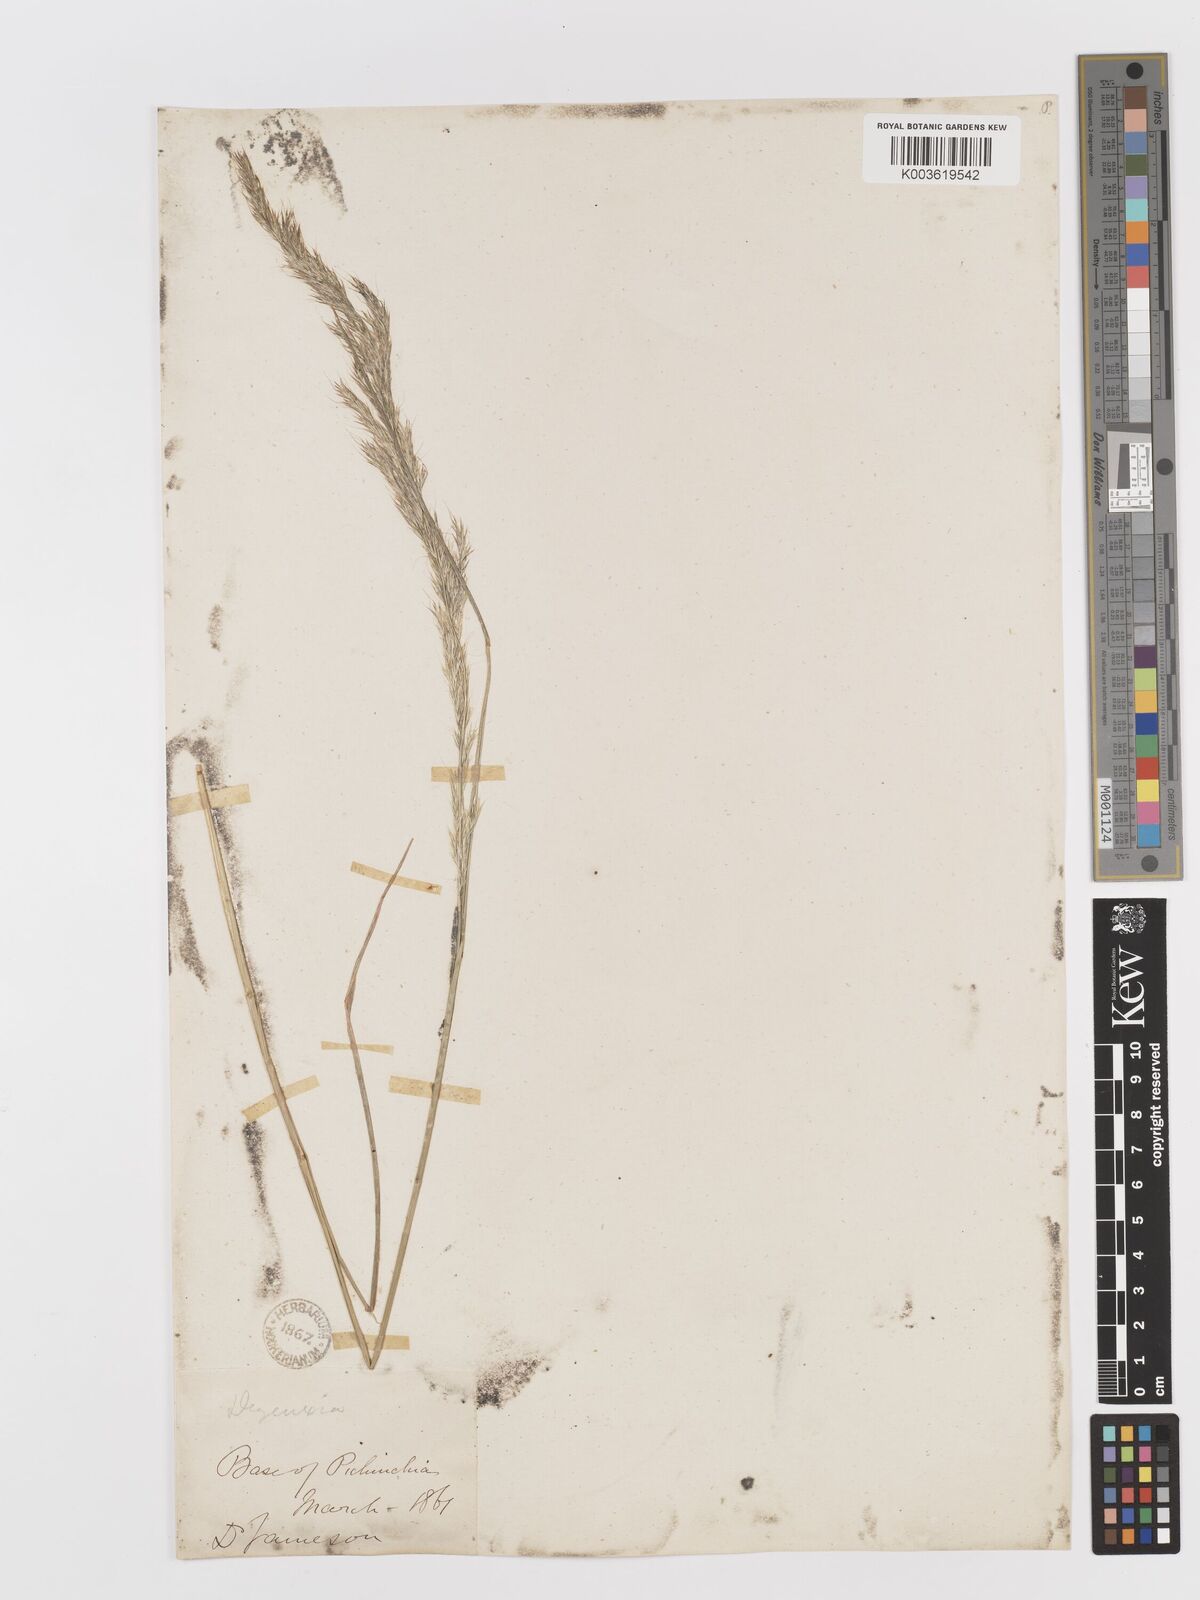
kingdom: Plantae
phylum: Tracheophyta
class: Liliopsida
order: Poales
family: Poaceae
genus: Peyritschia
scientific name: Peyritschia deyeuxioides
